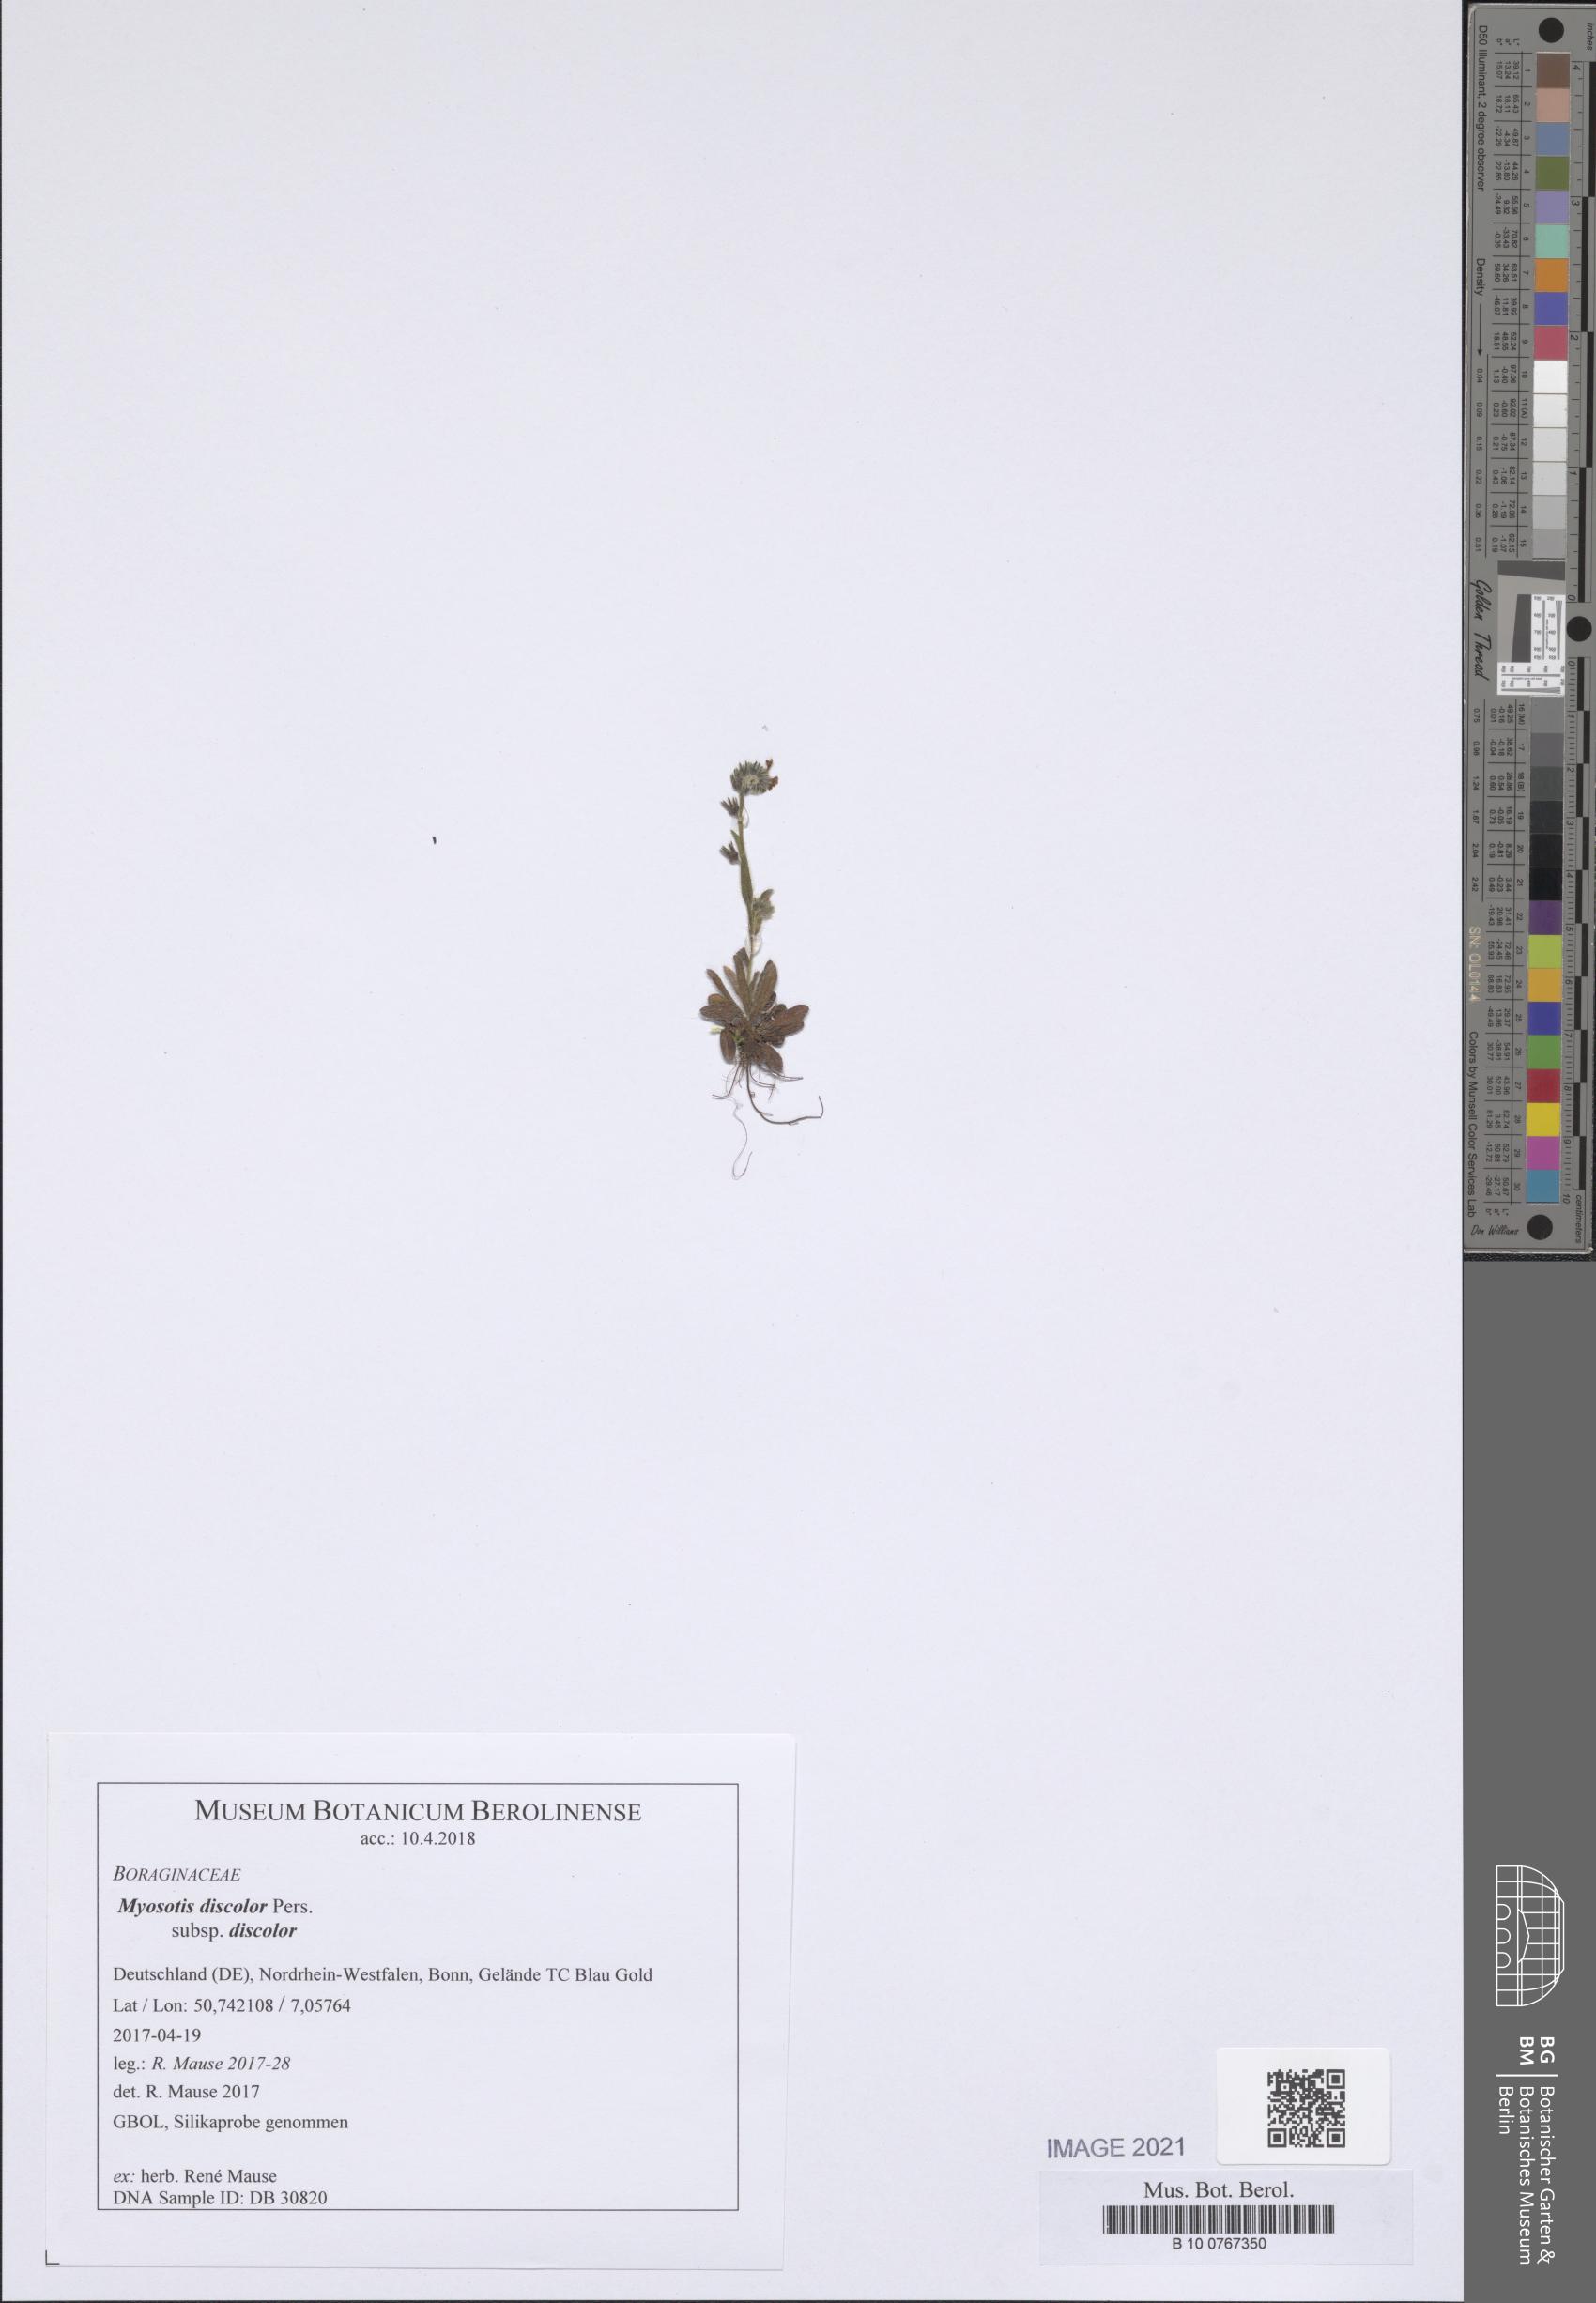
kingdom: Plantae
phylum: Tracheophyta
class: Magnoliopsida
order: Boraginales
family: Boraginaceae
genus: Myosotis
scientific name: Myosotis discolor
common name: Changing forget-me-not
